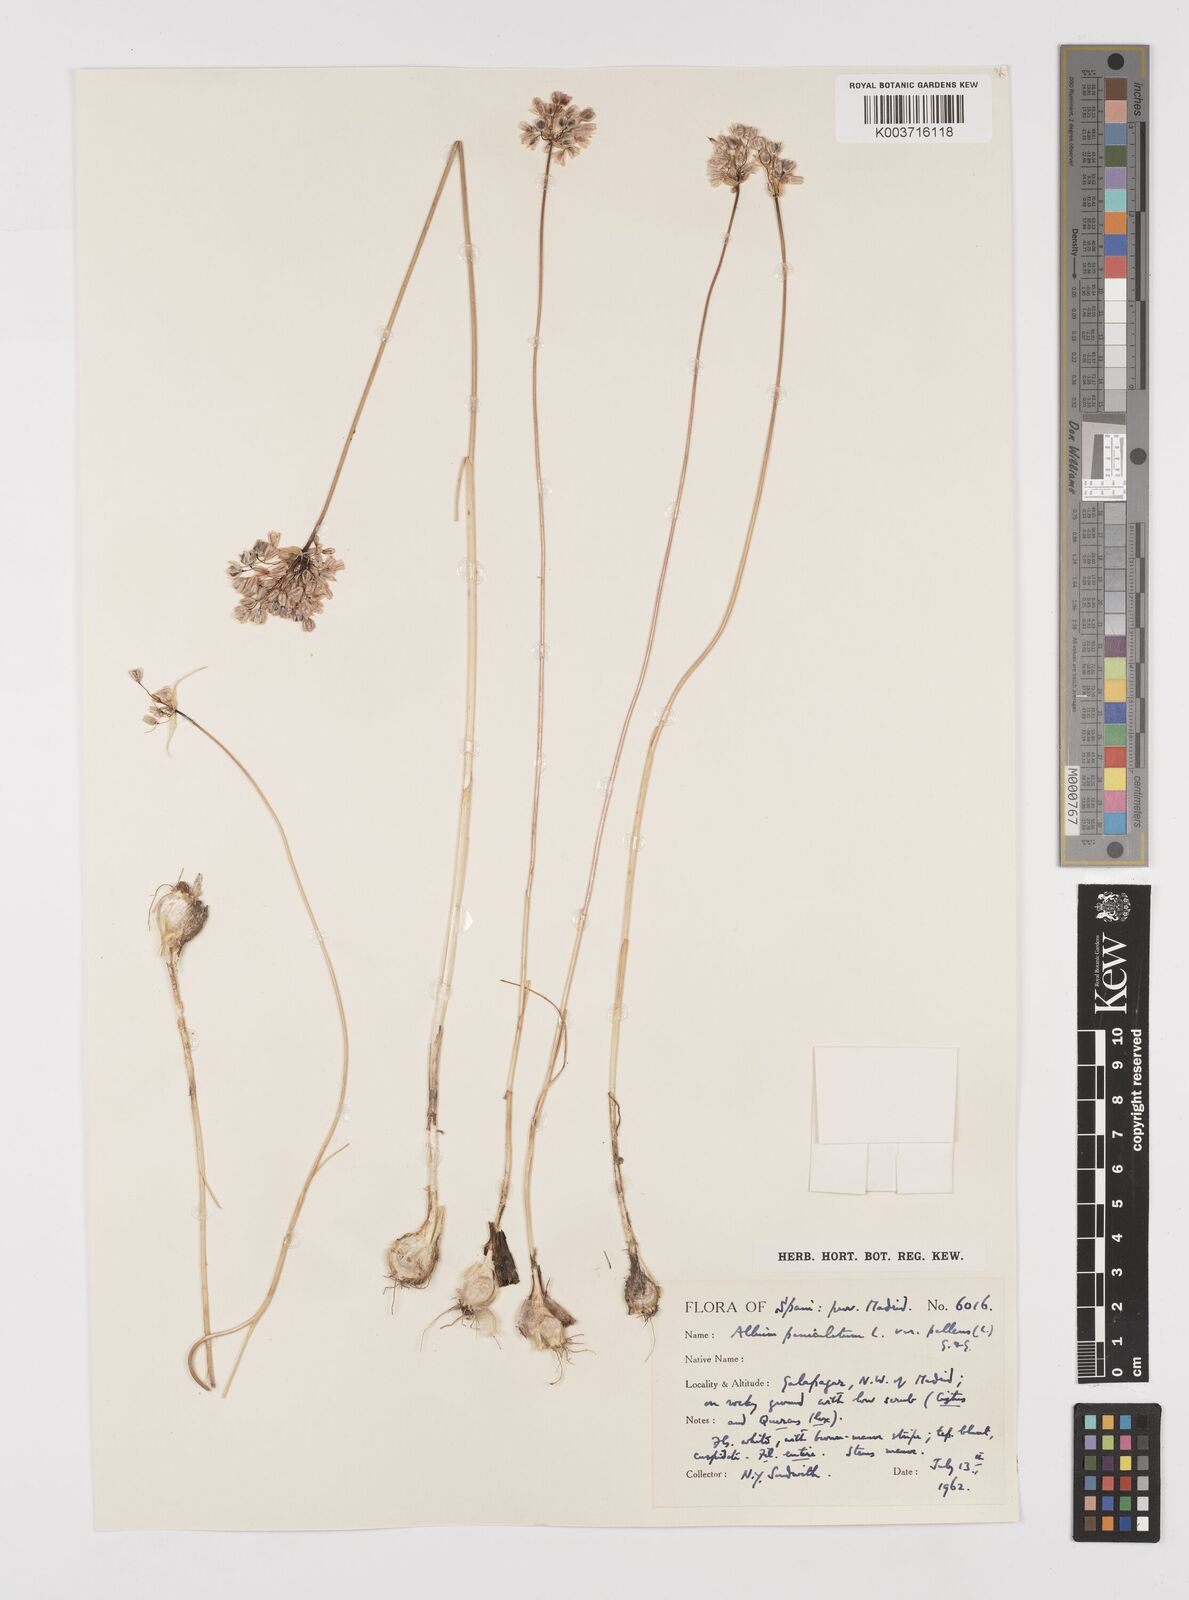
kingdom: Plantae
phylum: Tracheophyta
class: Liliopsida
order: Asparagales
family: Amaryllidaceae
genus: Allium
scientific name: Allium pallens
